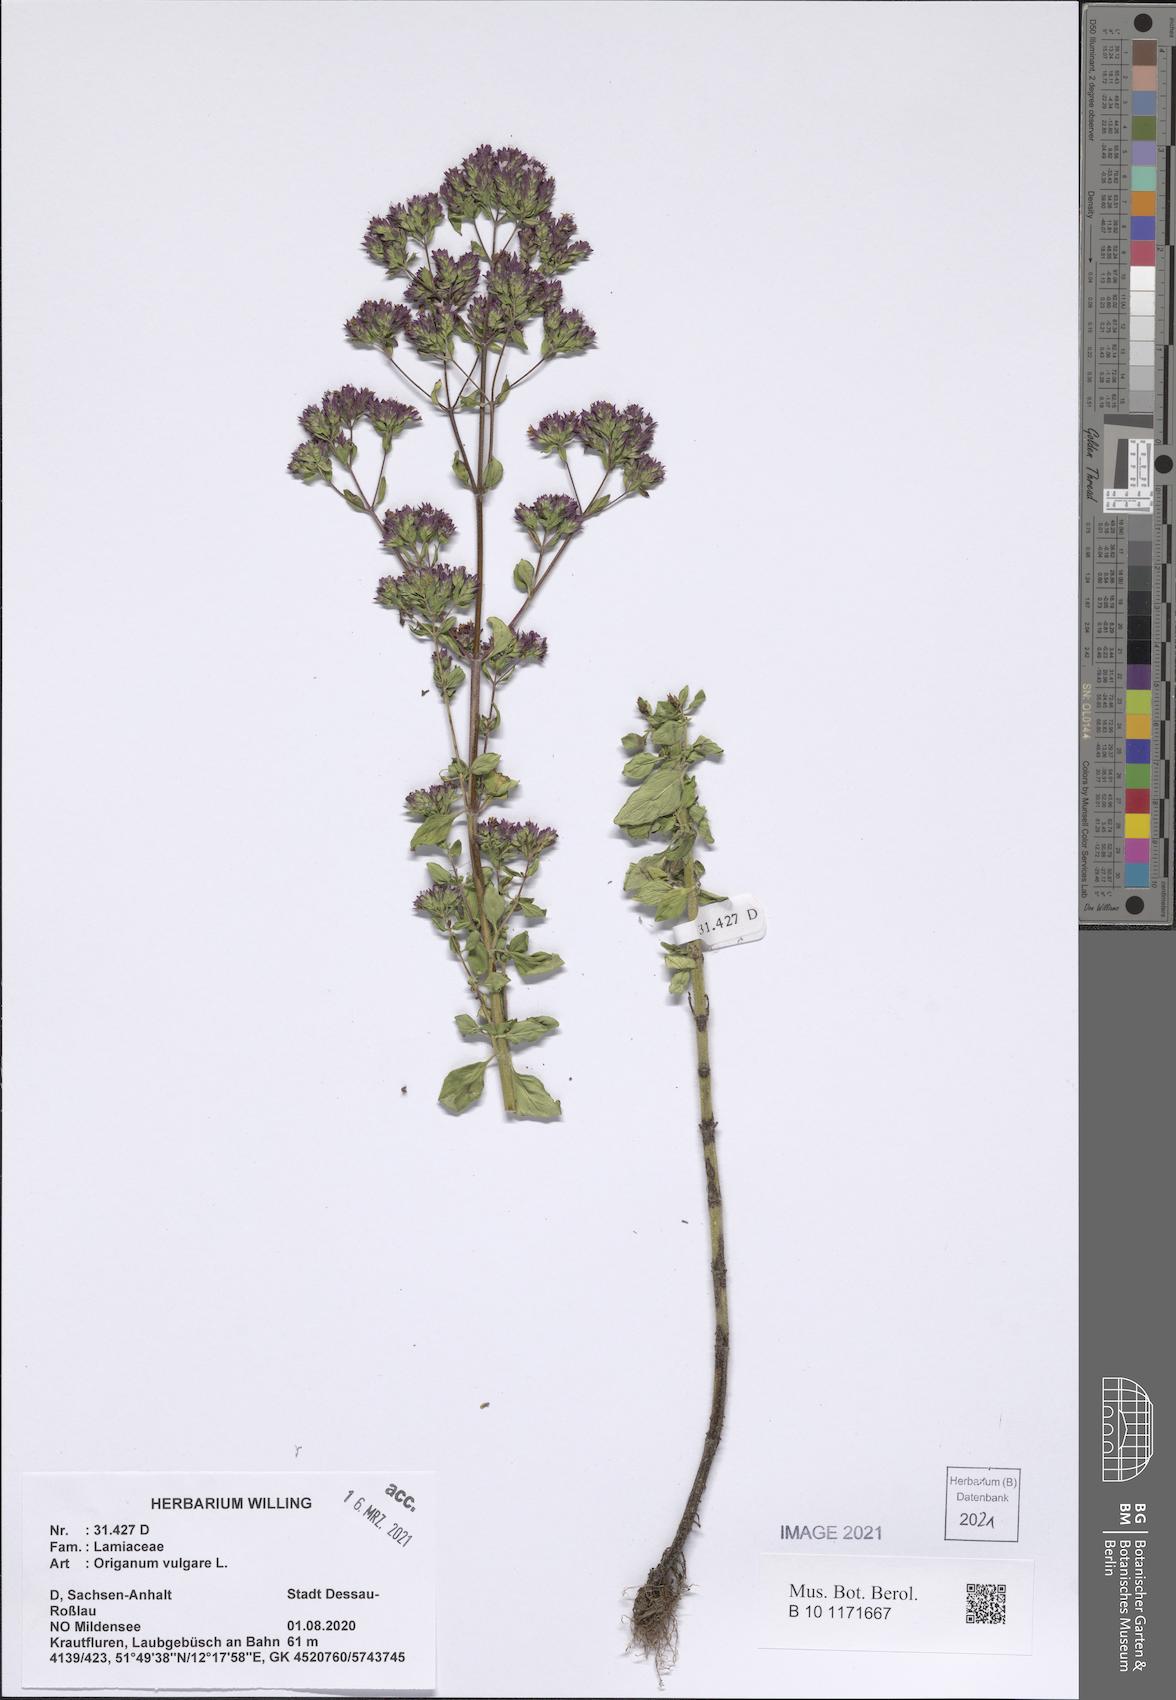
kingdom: Plantae
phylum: Tracheophyta
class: Magnoliopsida
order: Lamiales
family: Lamiaceae
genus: Origanum
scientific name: Origanum vulgare
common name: Wild marjoram
